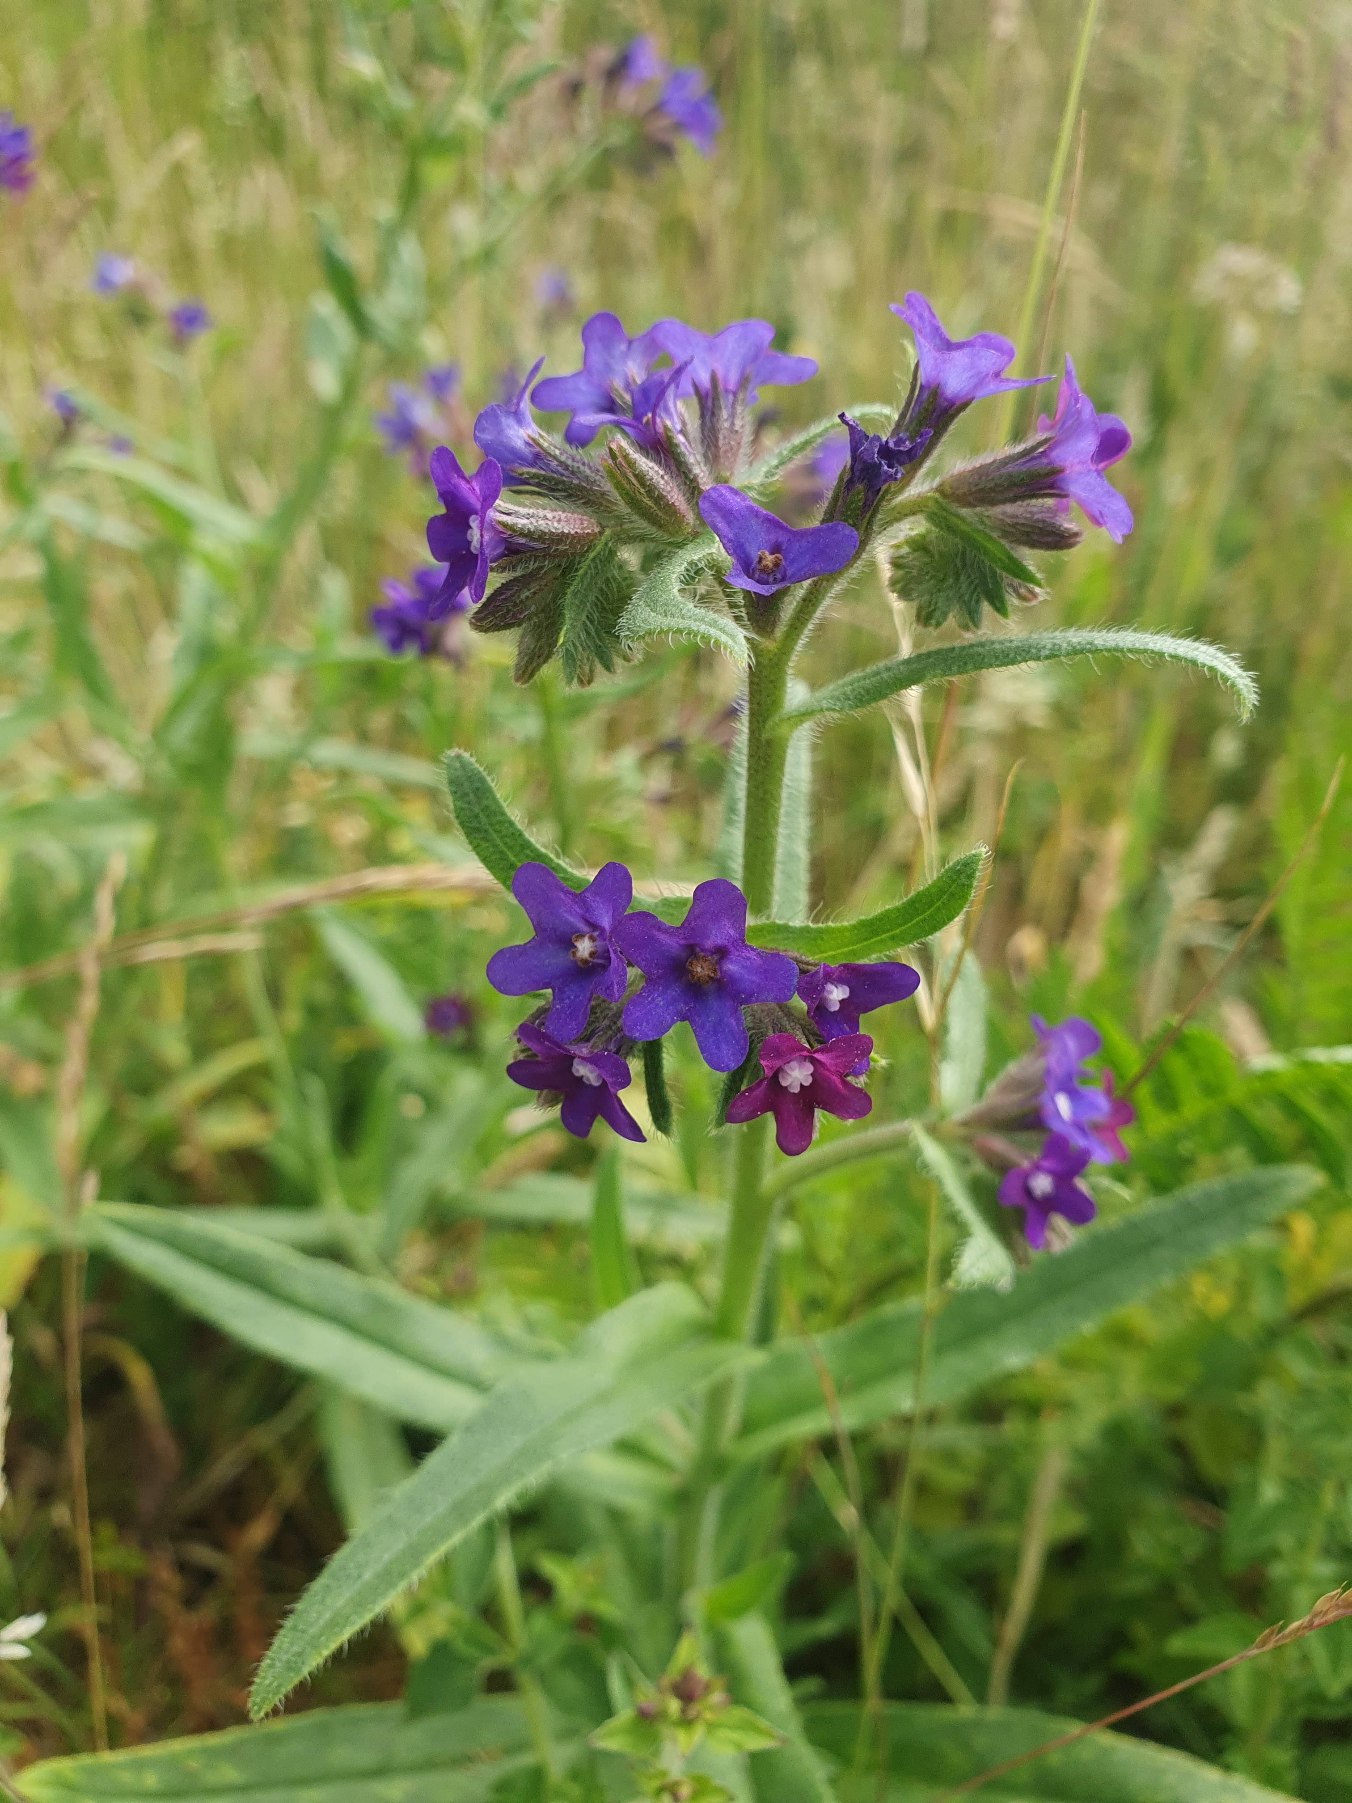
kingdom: Plantae
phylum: Tracheophyta
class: Magnoliopsida
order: Boraginales
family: Boraginaceae
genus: Anchusa
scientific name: Anchusa officinalis
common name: Læge-oksetunge
